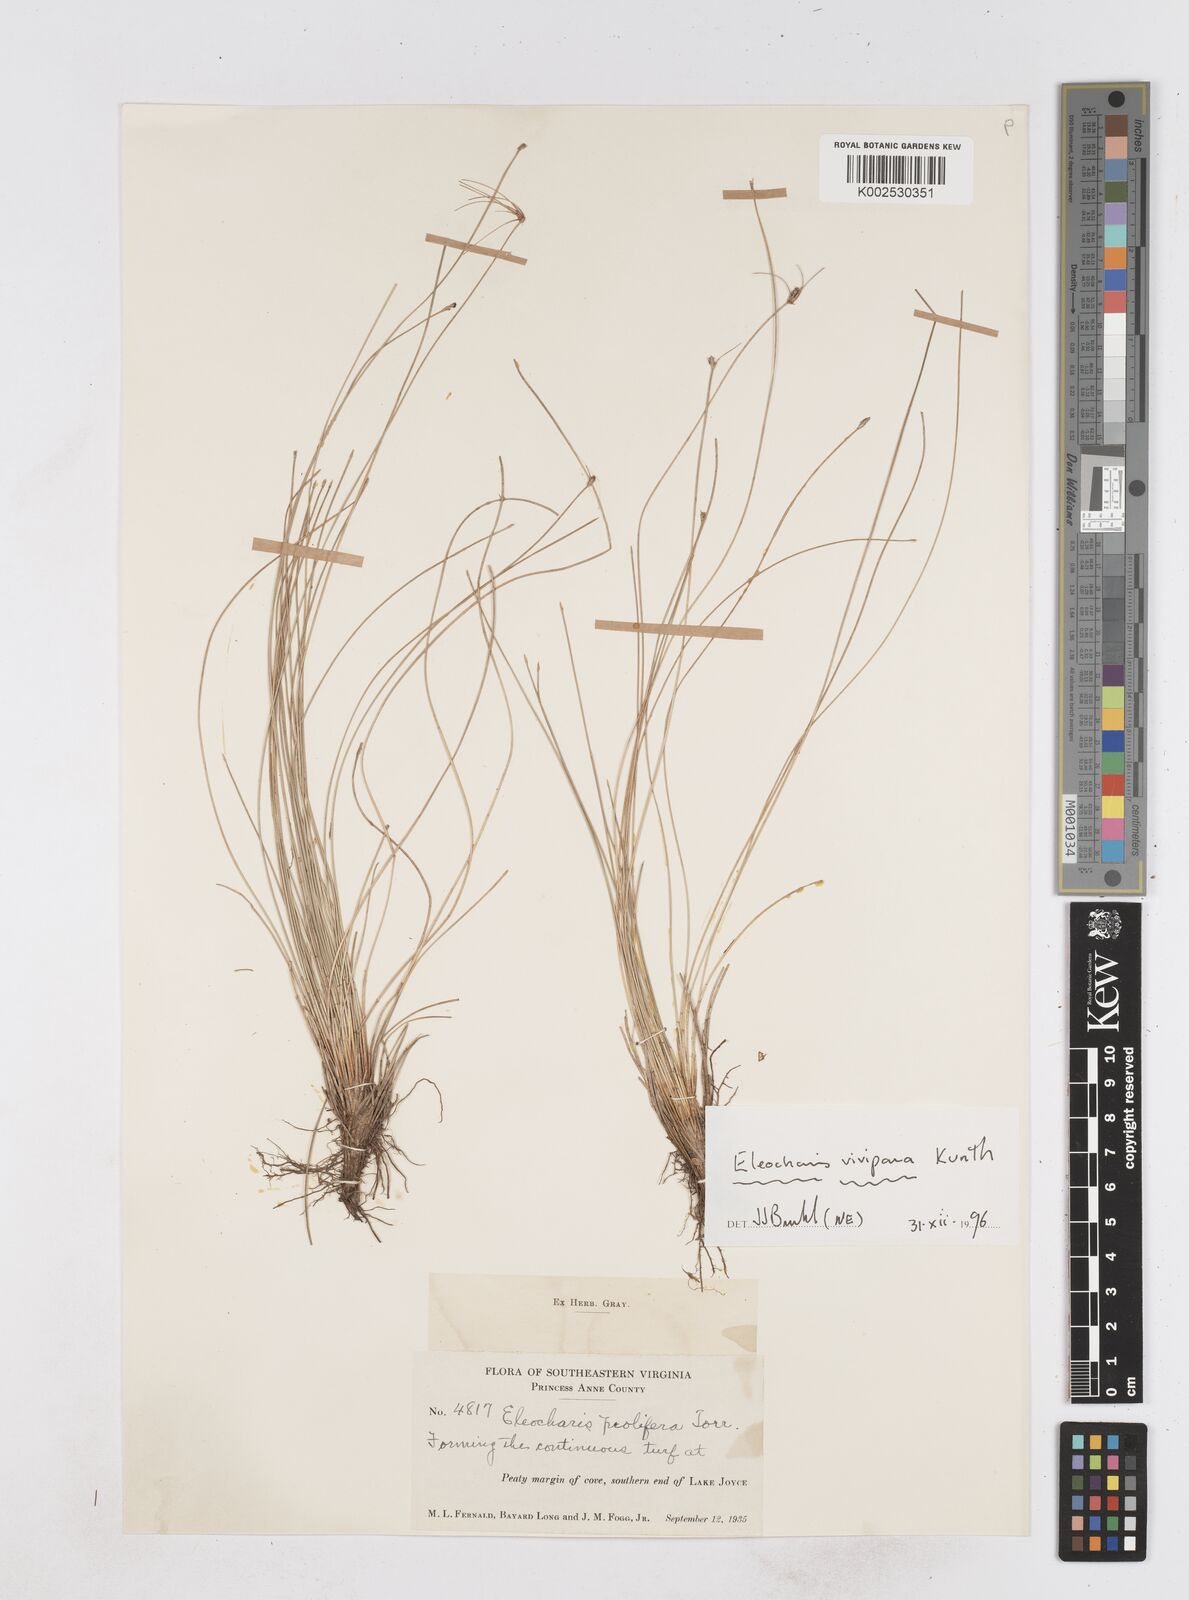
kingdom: Plantae
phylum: Tracheophyta
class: Liliopsida
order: Poales
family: Cyperaceae
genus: Eleocharis
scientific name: Eleocharis
